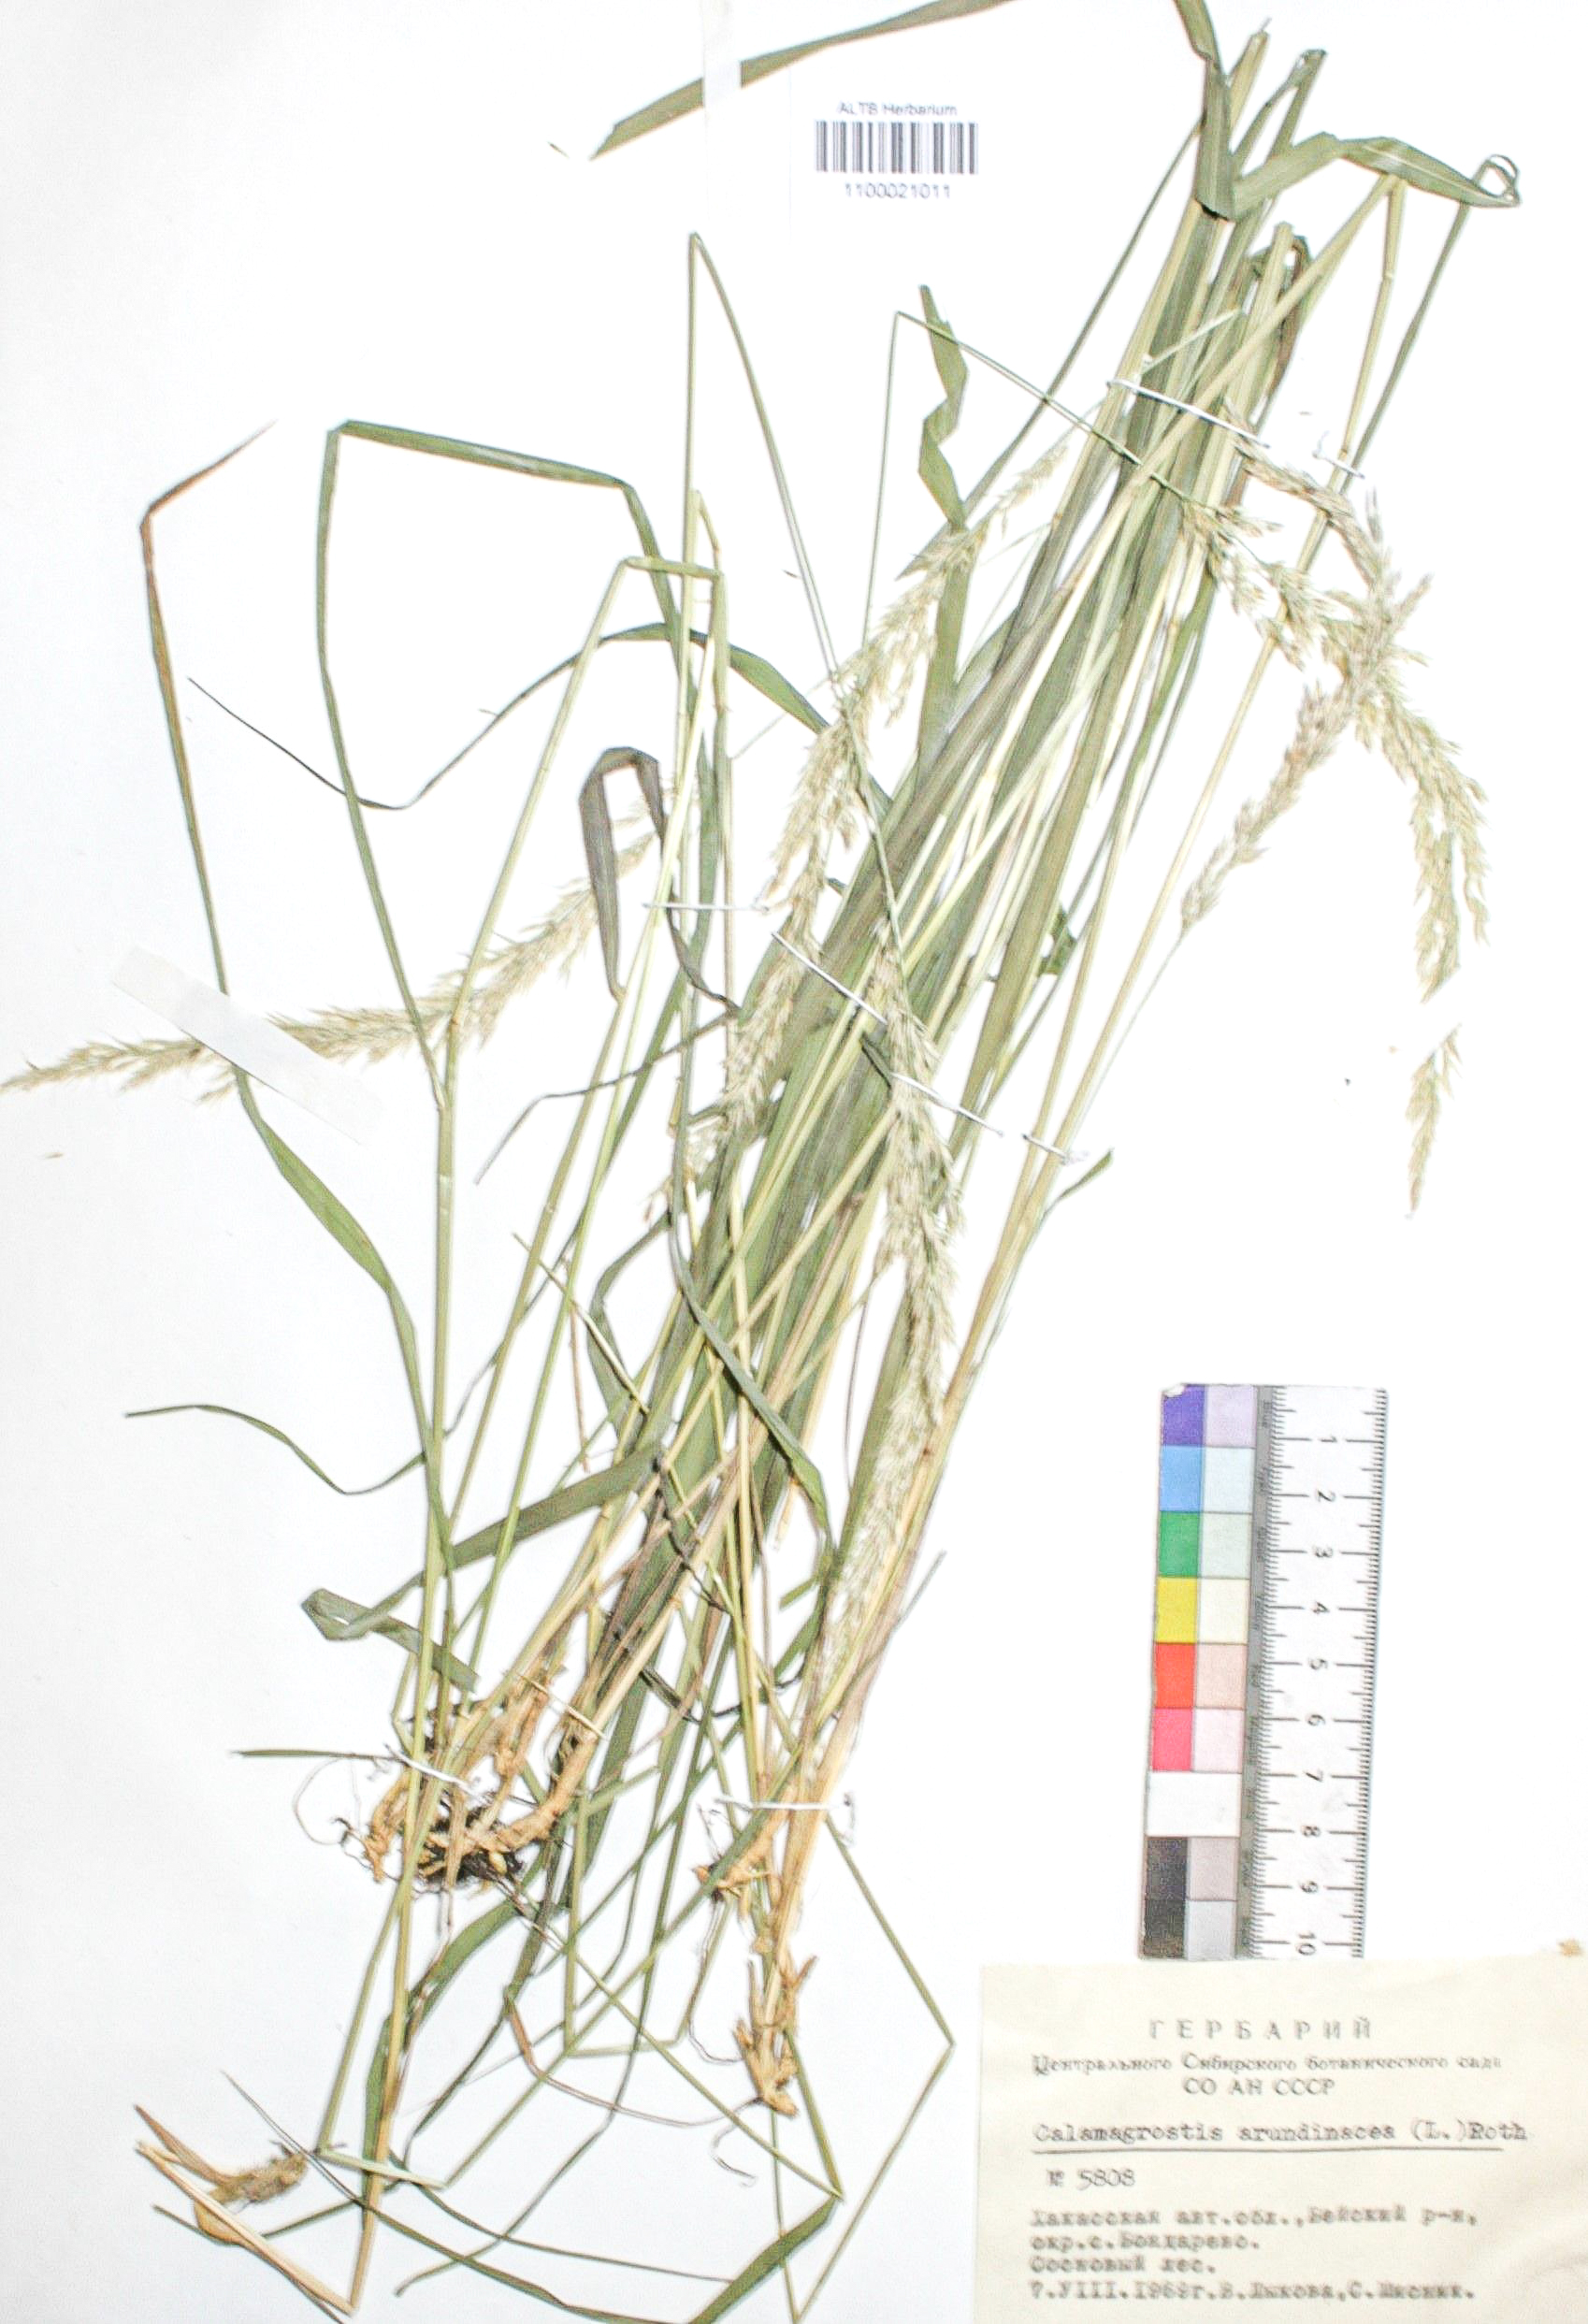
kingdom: Plantae
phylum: Tracheophyta
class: Liliopsida
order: Poales
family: Poaceae
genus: Calamagrostis
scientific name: Calamagrostis arundinacea
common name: Metskastik
